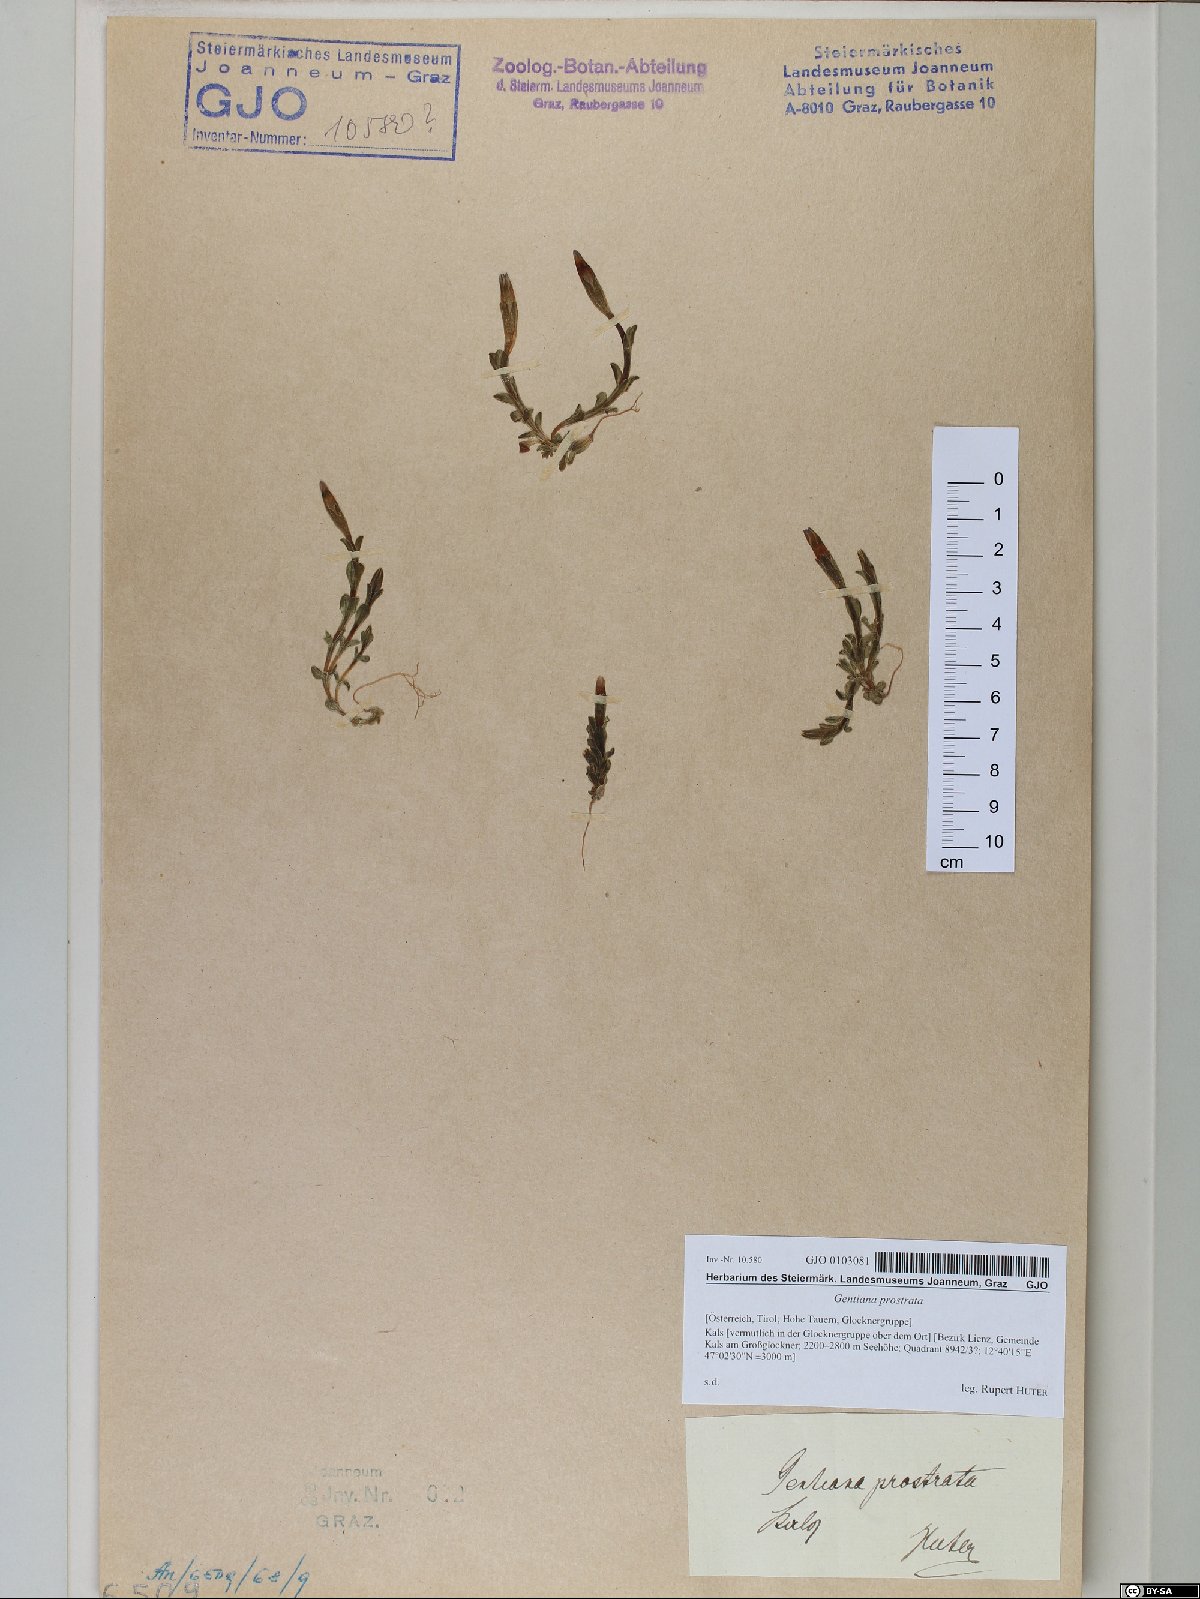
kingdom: Plantae
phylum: Tracheophyta
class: Magnoliopsida
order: Gentianales
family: Gentianaceae
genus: Gentiana
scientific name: Gentiana prostrata
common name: Moss gentian
